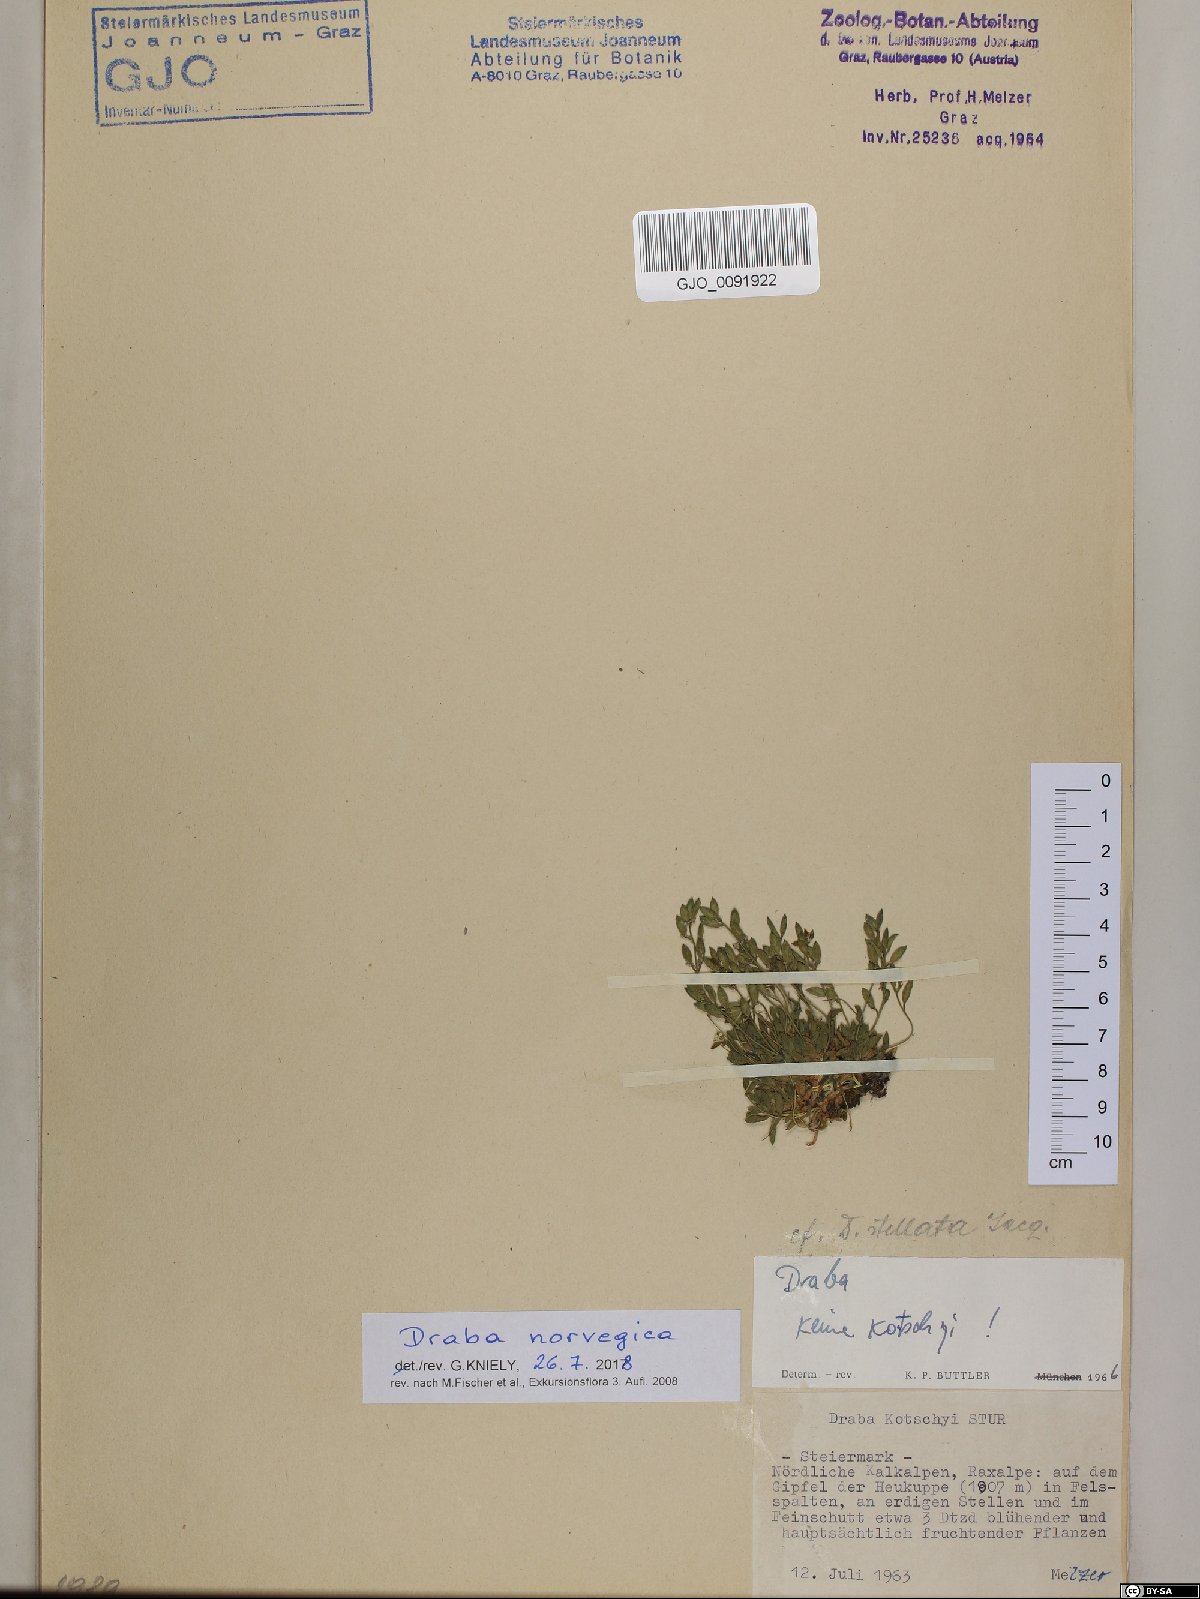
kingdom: Plantae
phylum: Tracheophyta
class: Magnoliopsida
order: Brassicales
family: Brassicaceae
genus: Draba
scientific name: Draba norvegica
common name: Rock whitlowgrass
